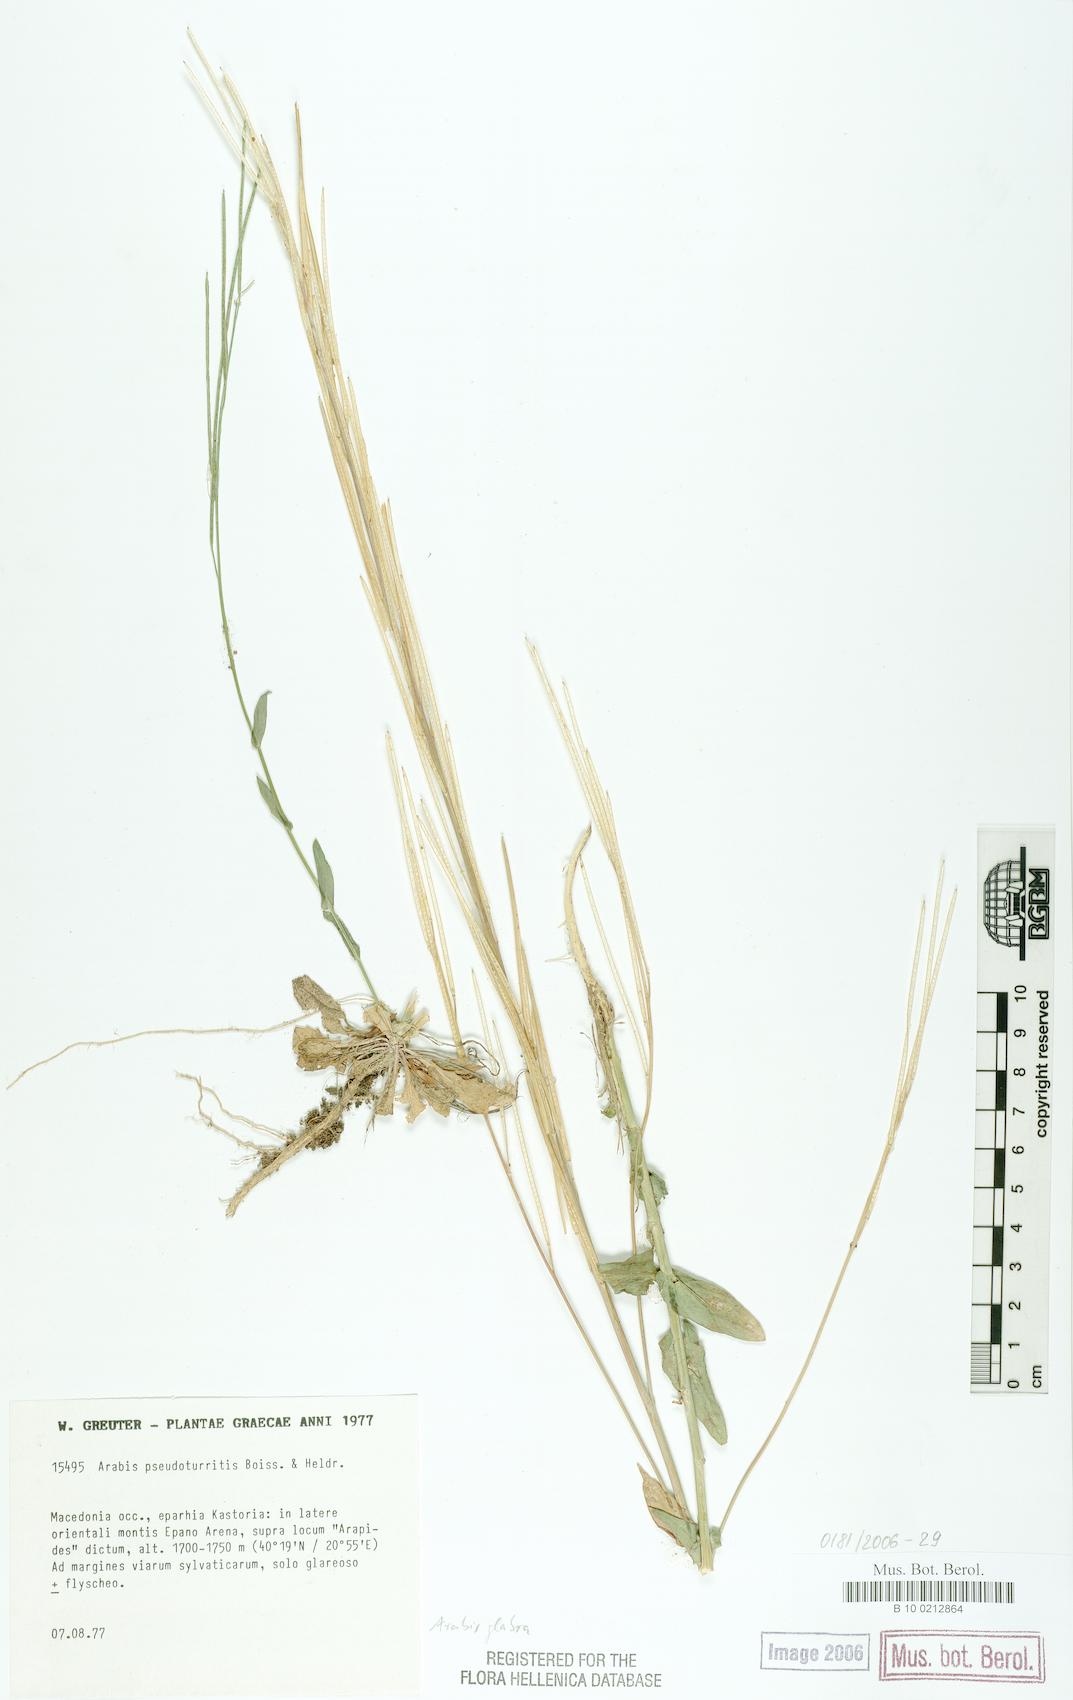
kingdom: Plantae
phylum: Tracheophyta
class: Magnoliopsida
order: Brassicales
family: Brassicaceae
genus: Turritis
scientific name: Turritis glabra
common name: Tower rockcress
